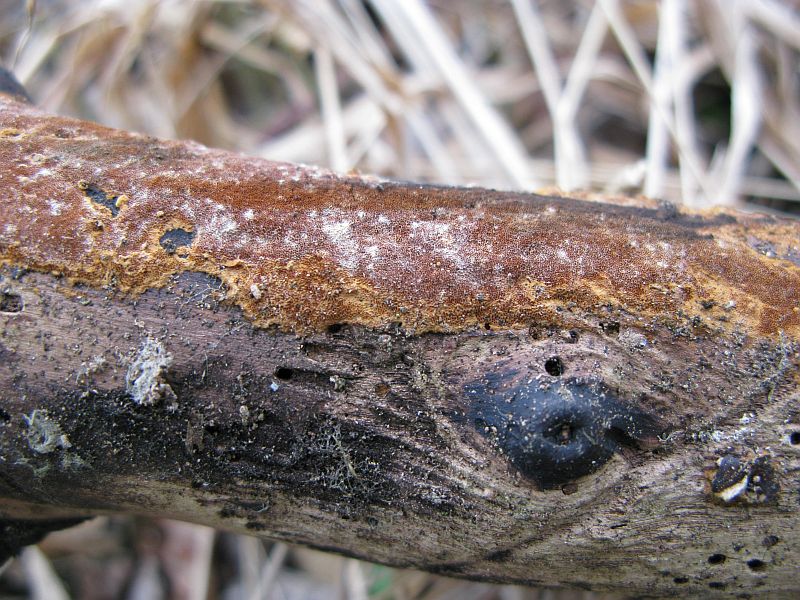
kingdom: Fungi
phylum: Basidiomycota
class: Agaricomycetes
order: Hymenochaetales
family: Hymenochaetaceae
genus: Fuscoporia
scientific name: Fuscoporia ferruginosa
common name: rustbrun ildporesvamp
